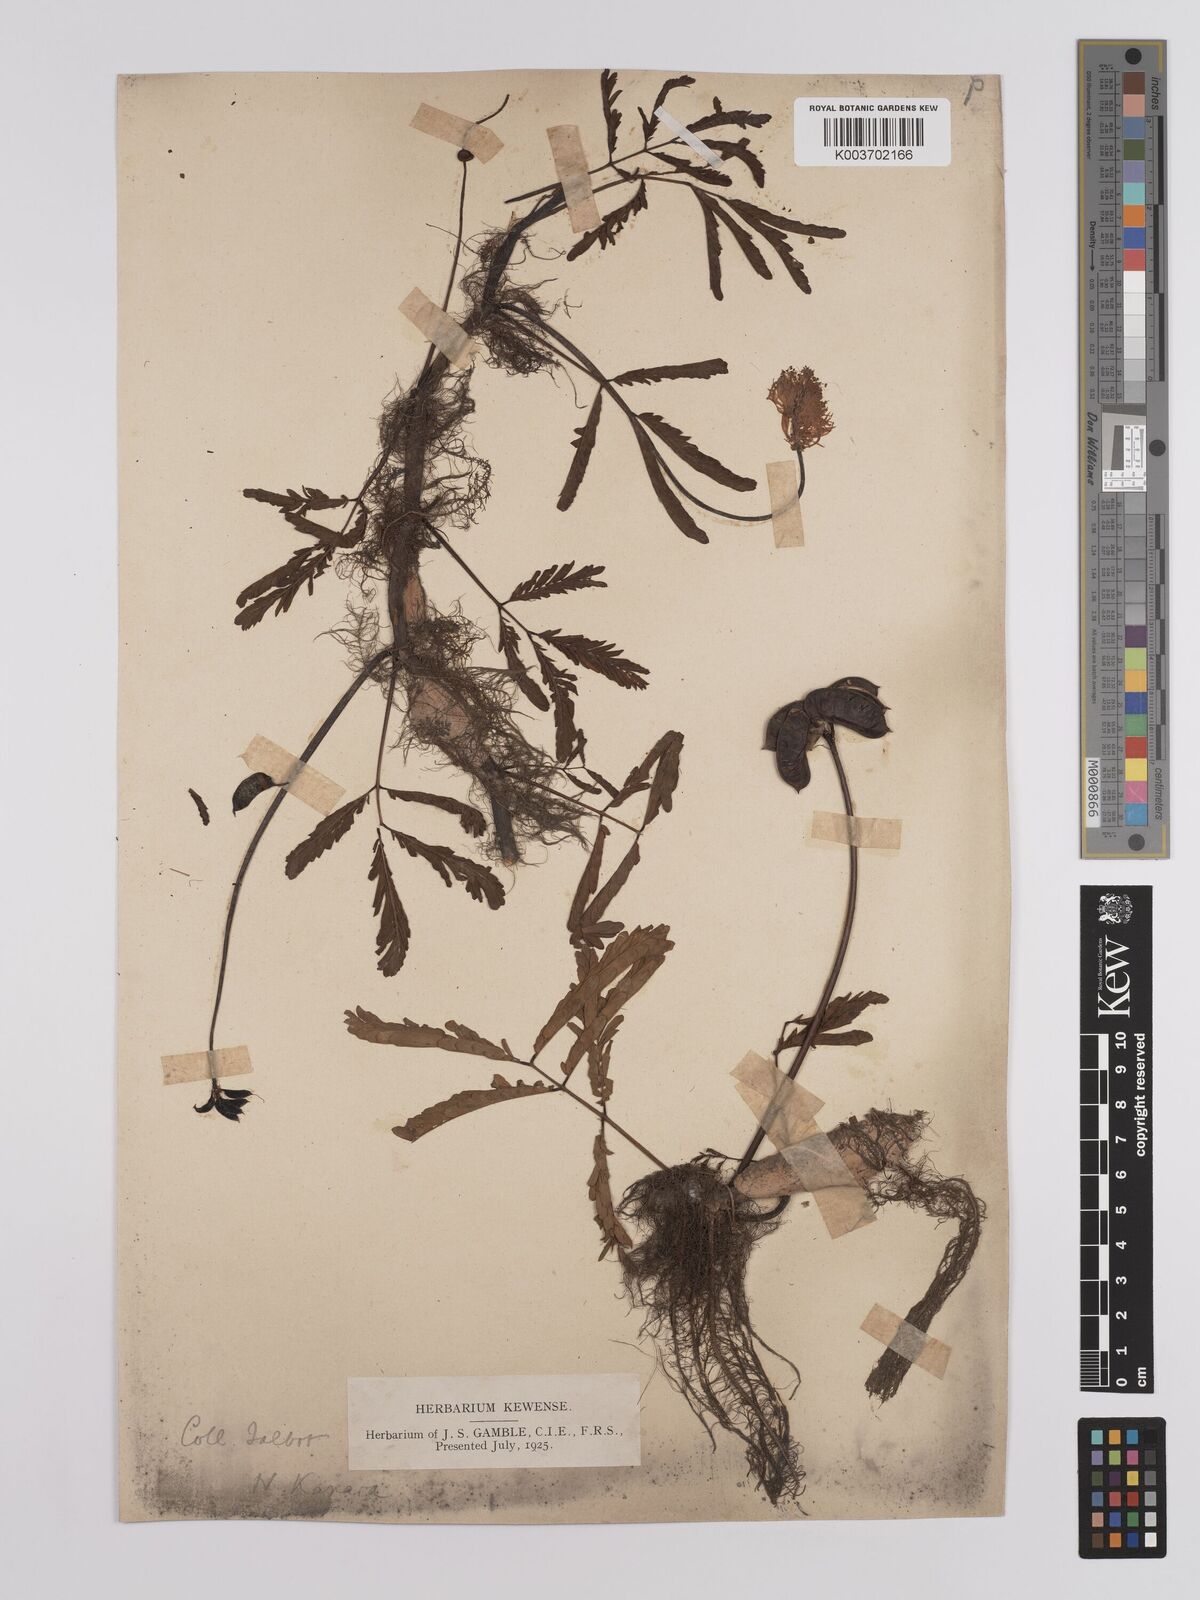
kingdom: Plantae
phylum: Tracheophyta
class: Magnoliopsida
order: Fabales
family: Fabaceae
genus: Neptunia
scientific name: Neptunia prostrata
